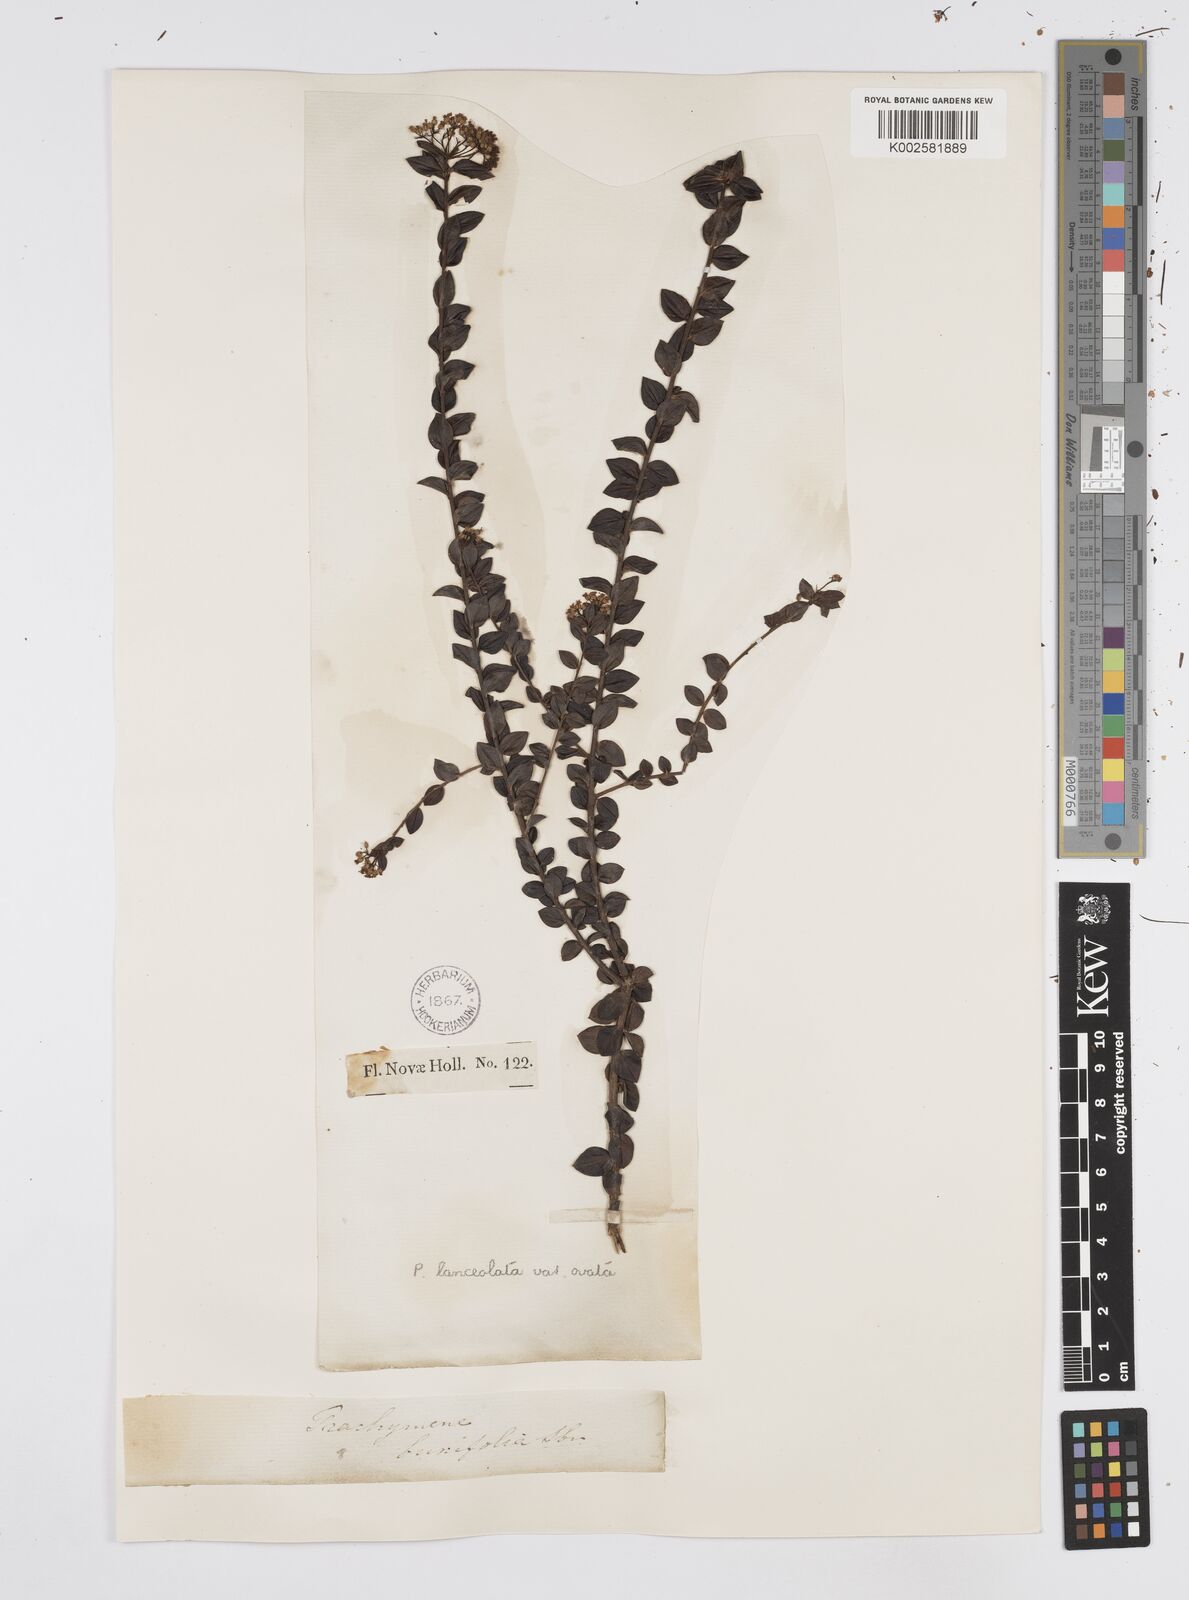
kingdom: Plantae
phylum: Tracheophyta
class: Magnoliopsida
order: Apiales
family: Apiaceae
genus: Platysace
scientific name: Platysace lanceolata
